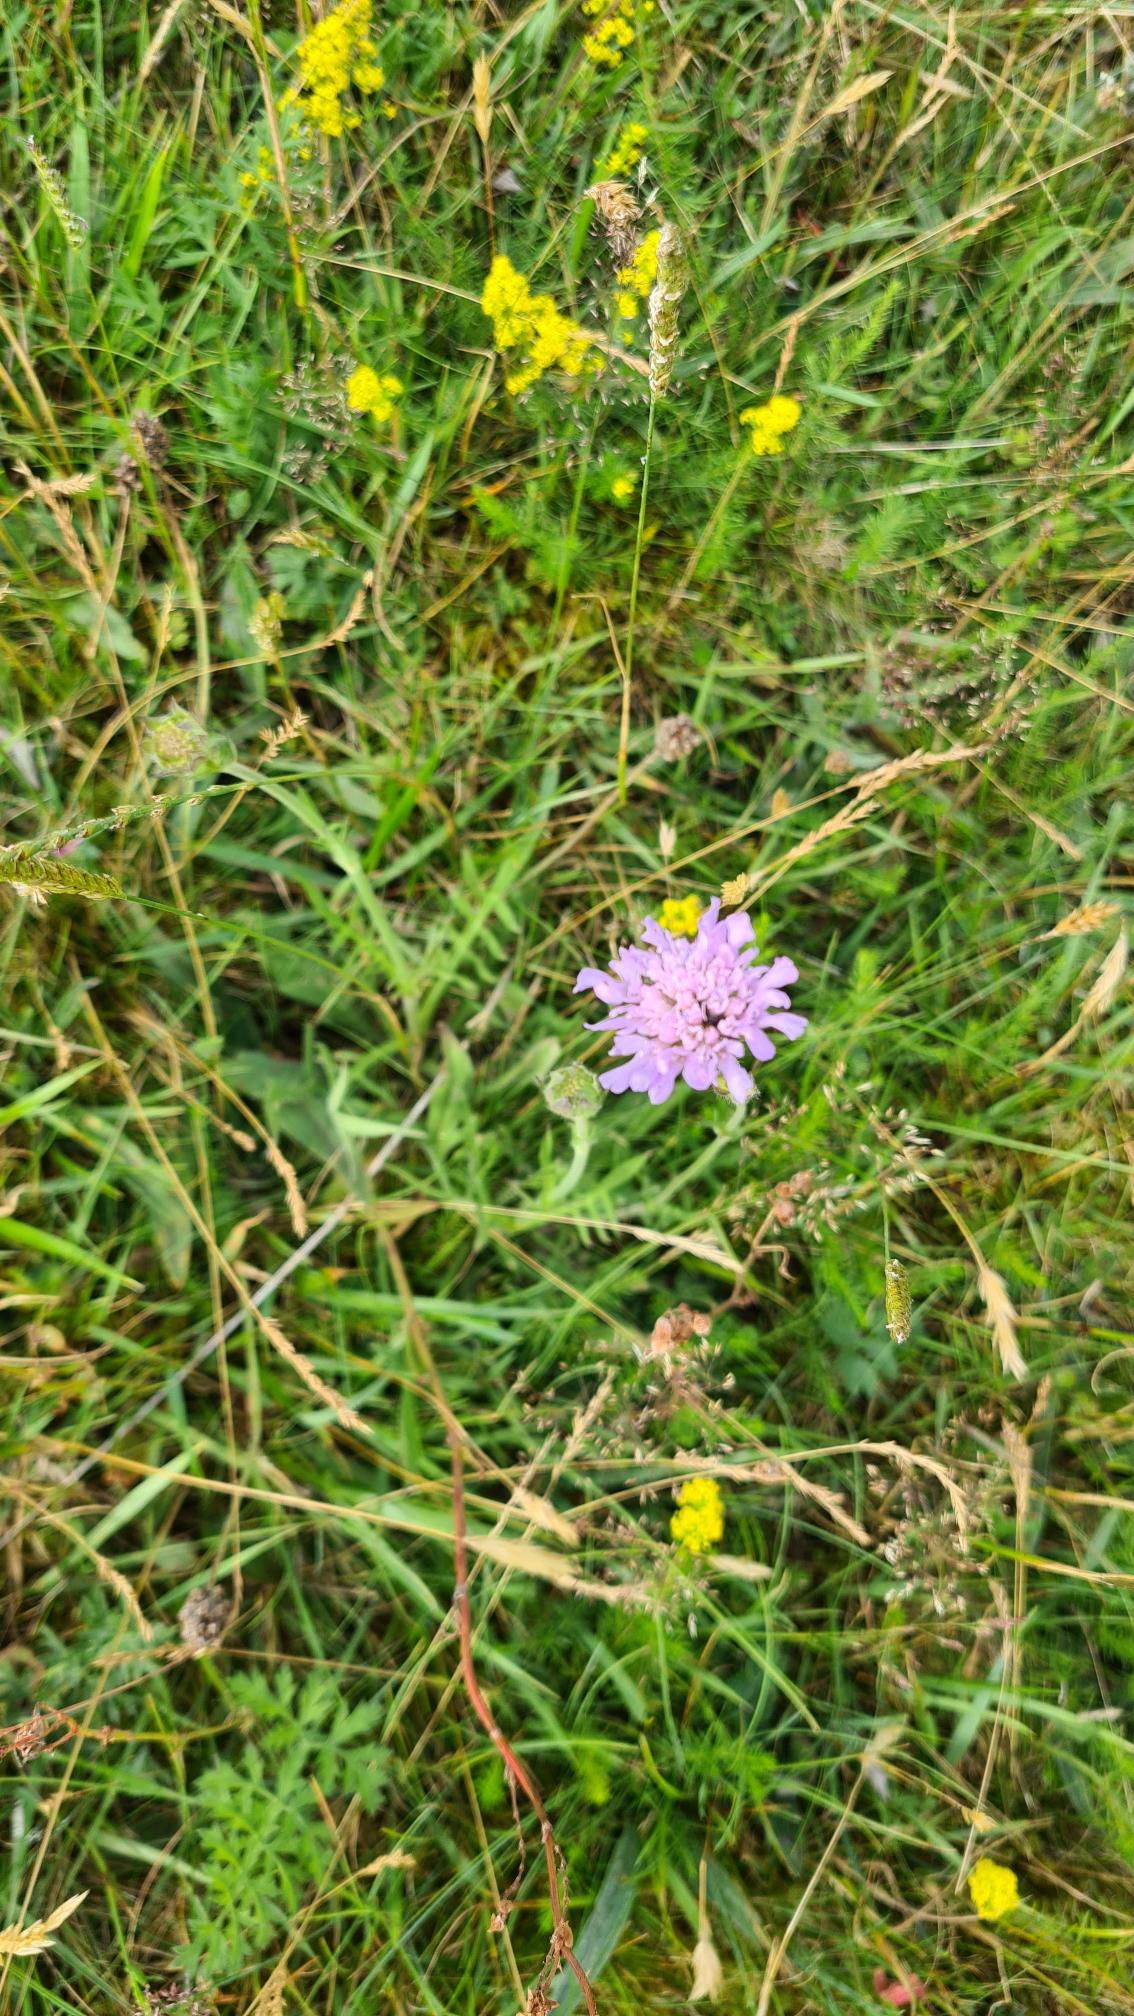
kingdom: Plantae
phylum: Tracheophyta
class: Magnoliopsida
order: Dipsacales
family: Caprifoliaceae
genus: Knautia
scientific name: Knautia arvensis
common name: Blåhat
